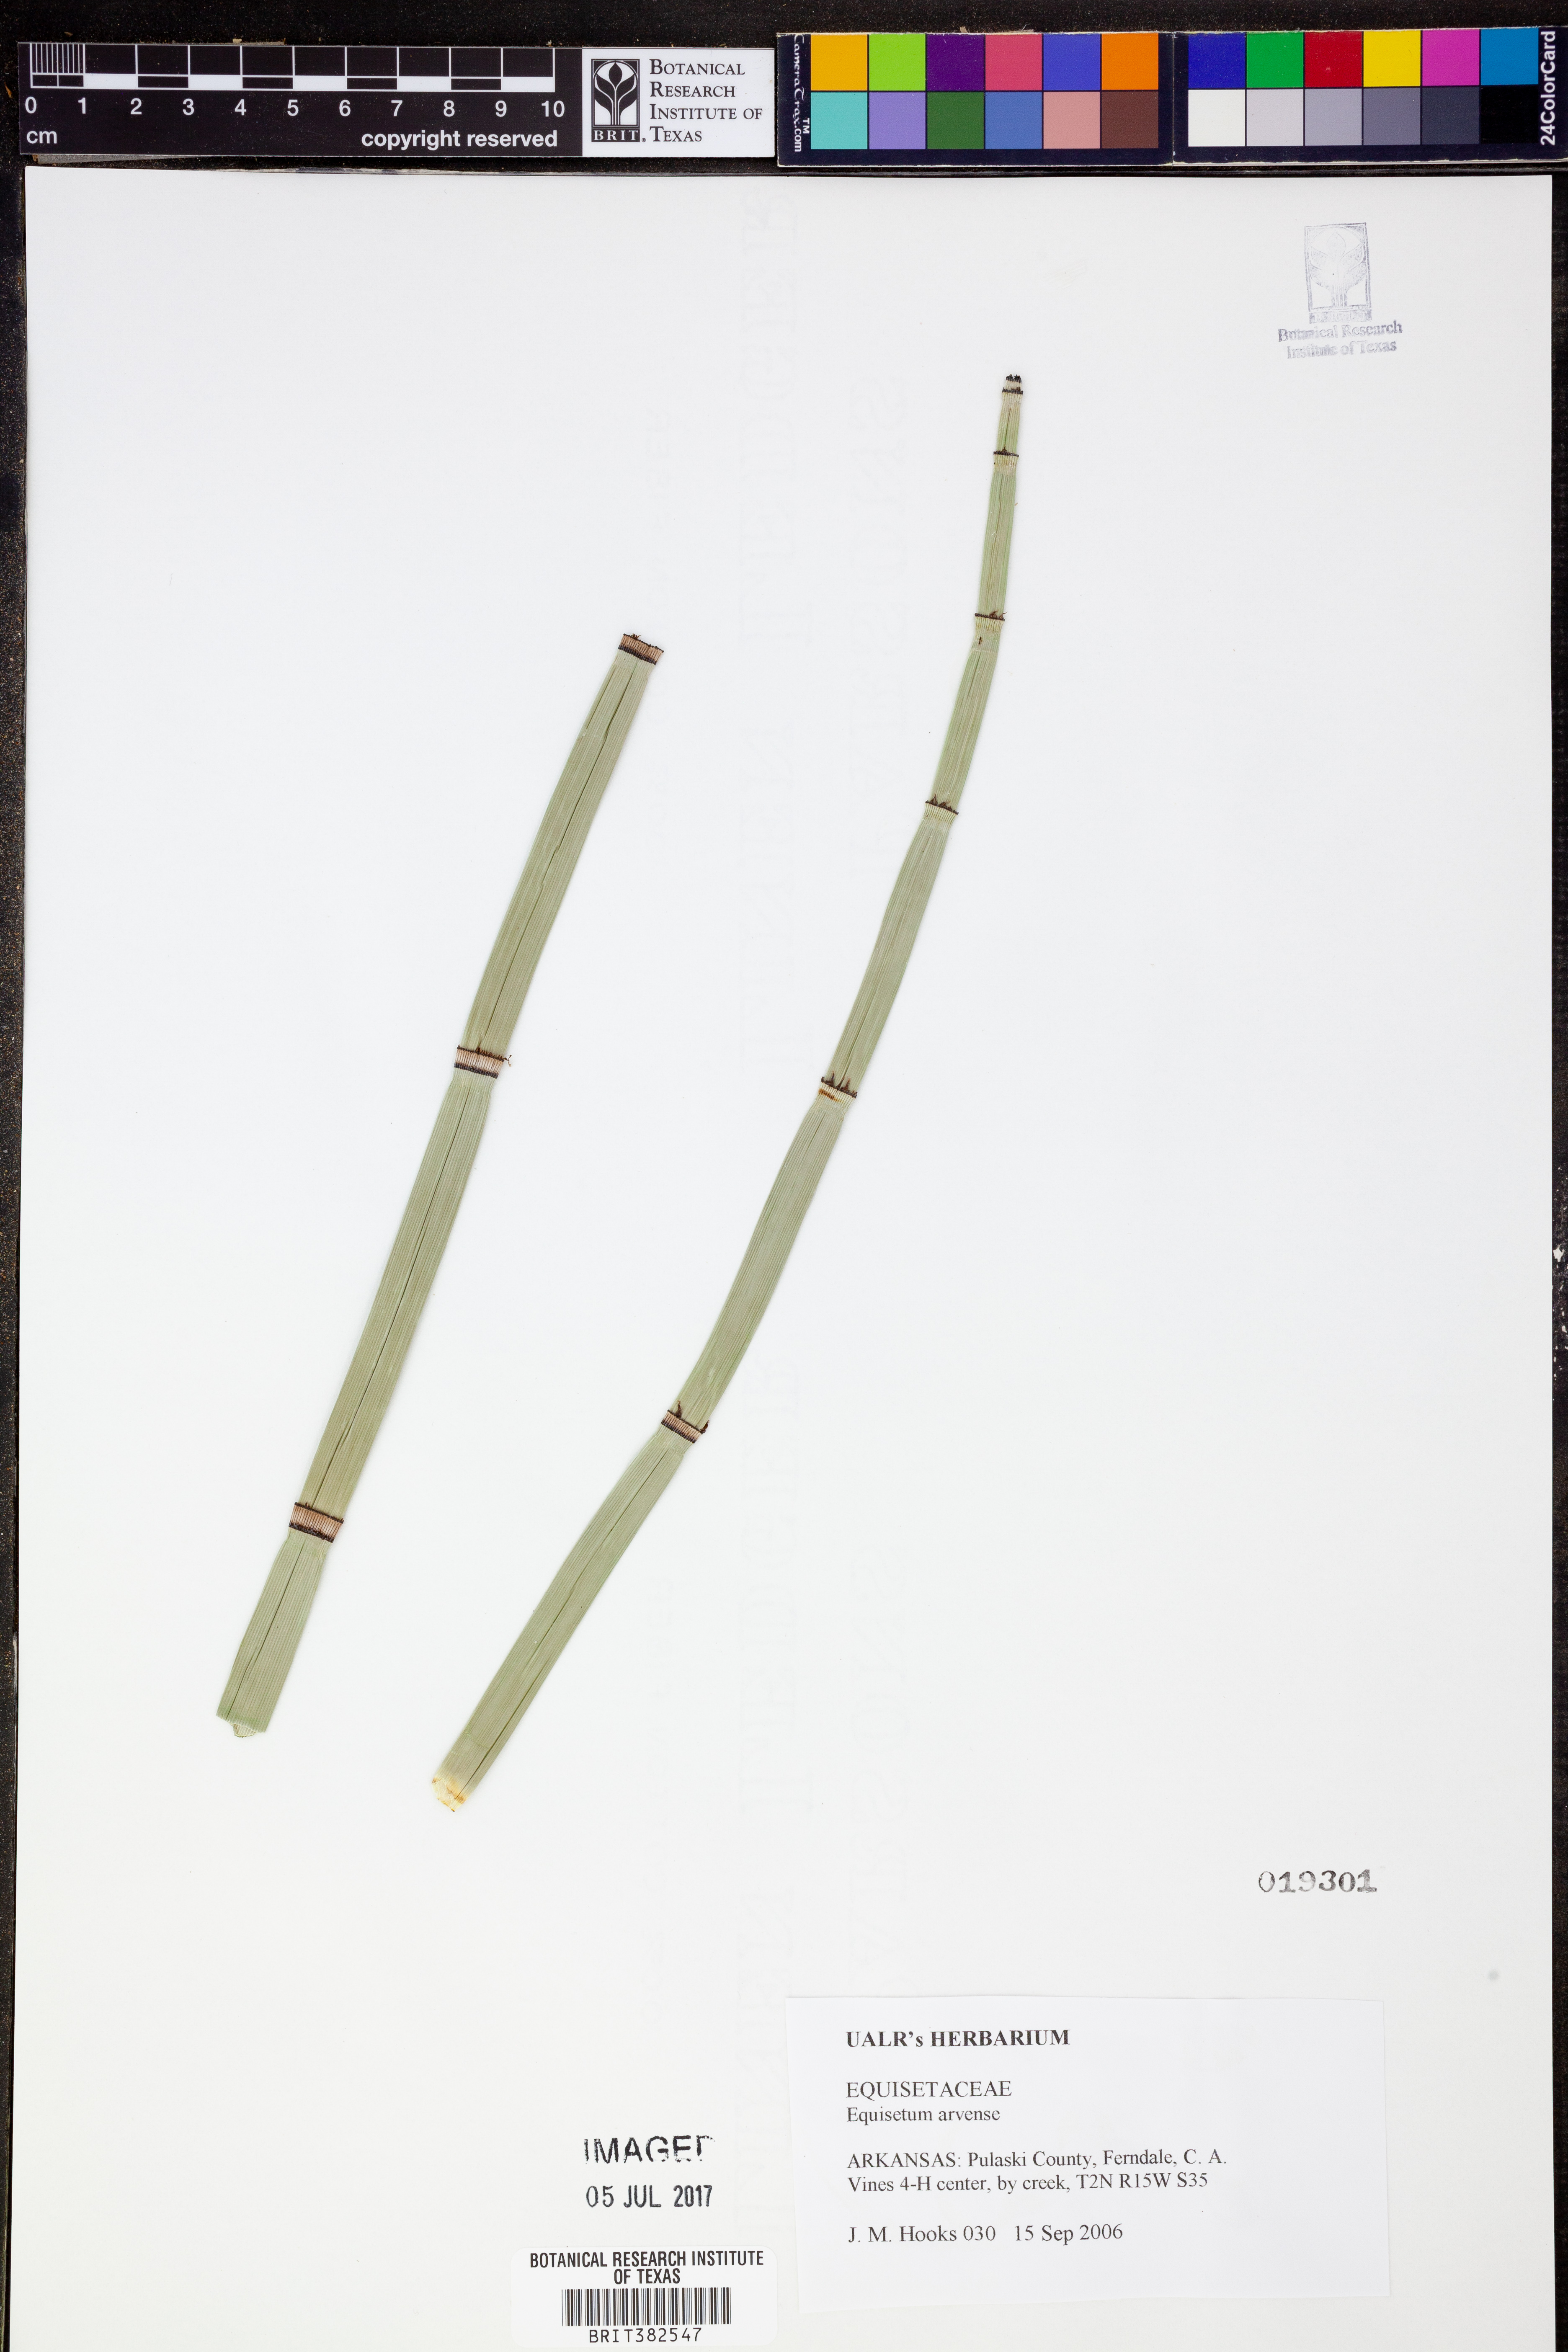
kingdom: Plantae
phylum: Tracheophyta
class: Polypodiopsida
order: Equisetales
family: Equisetaceae
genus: Equisetum
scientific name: Equisetum arvense
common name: Field horsetail
